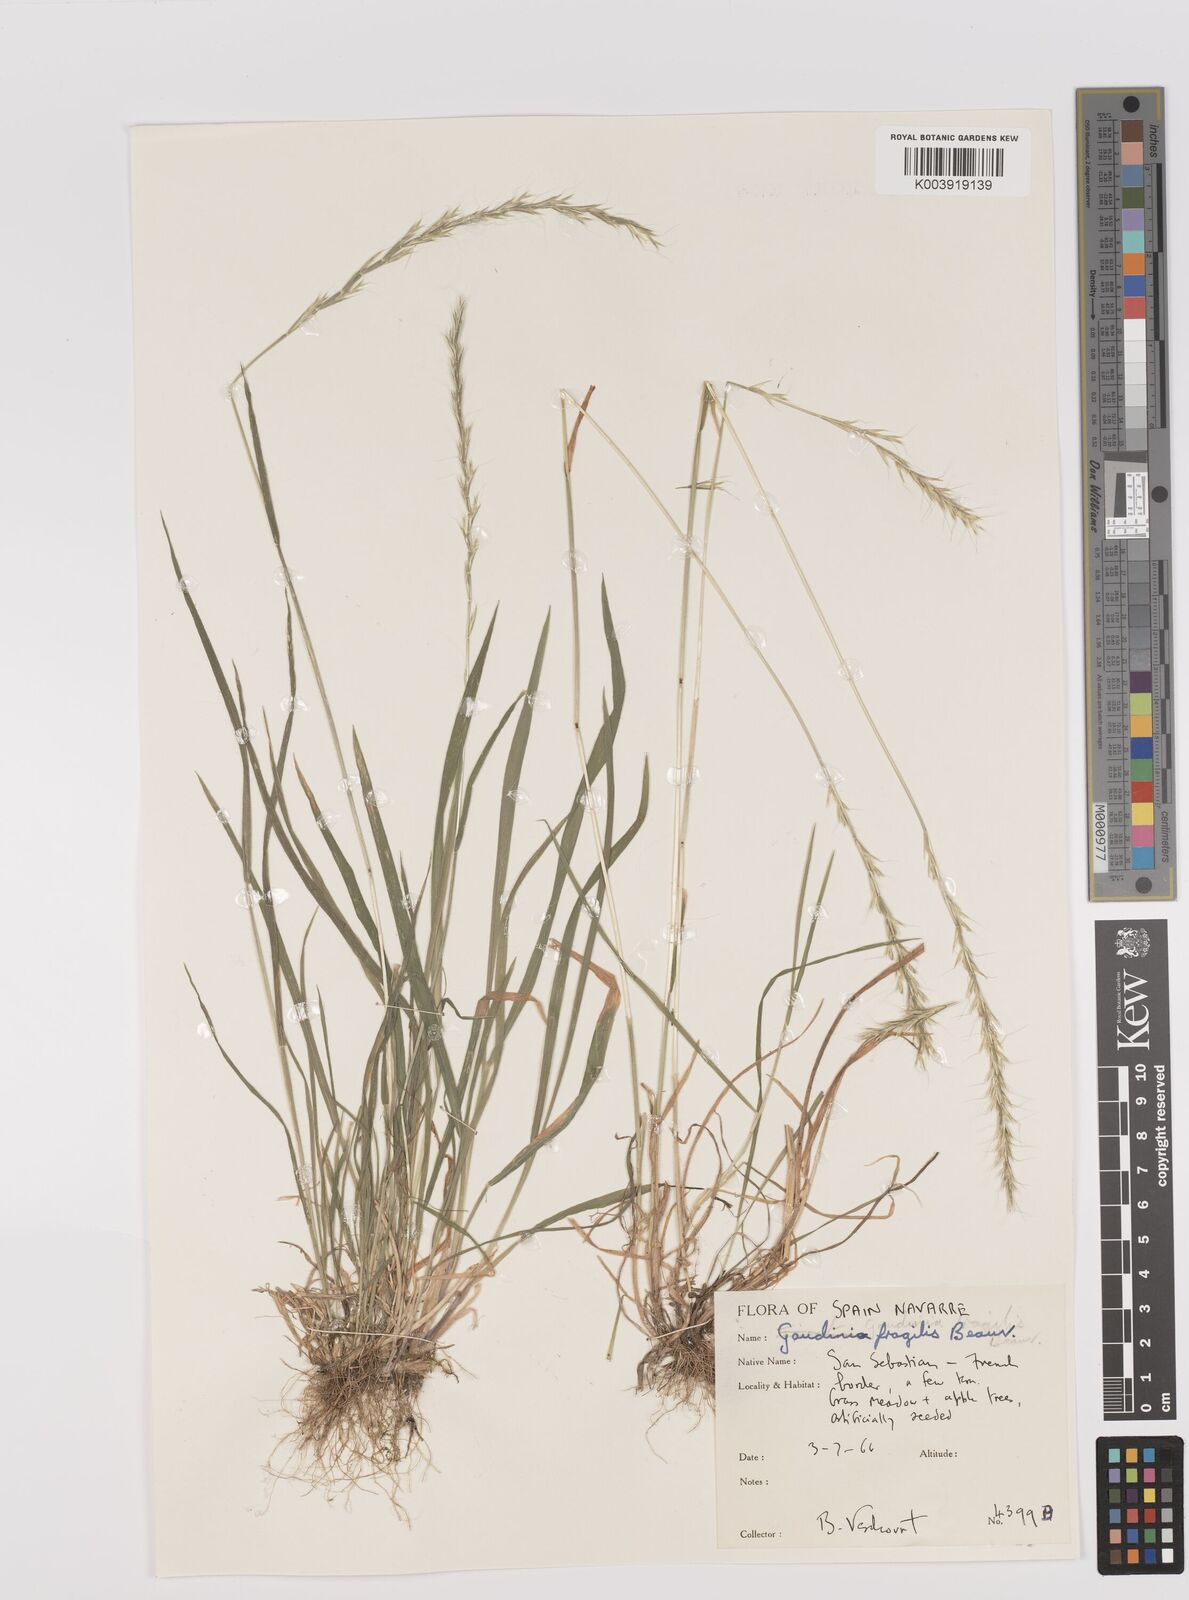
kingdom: Plantae
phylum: Tracheophyta
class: Liliopsida
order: Poales
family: Poaceae
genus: Gaudinia
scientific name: Gaudinia fragilis
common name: French oat-grass
